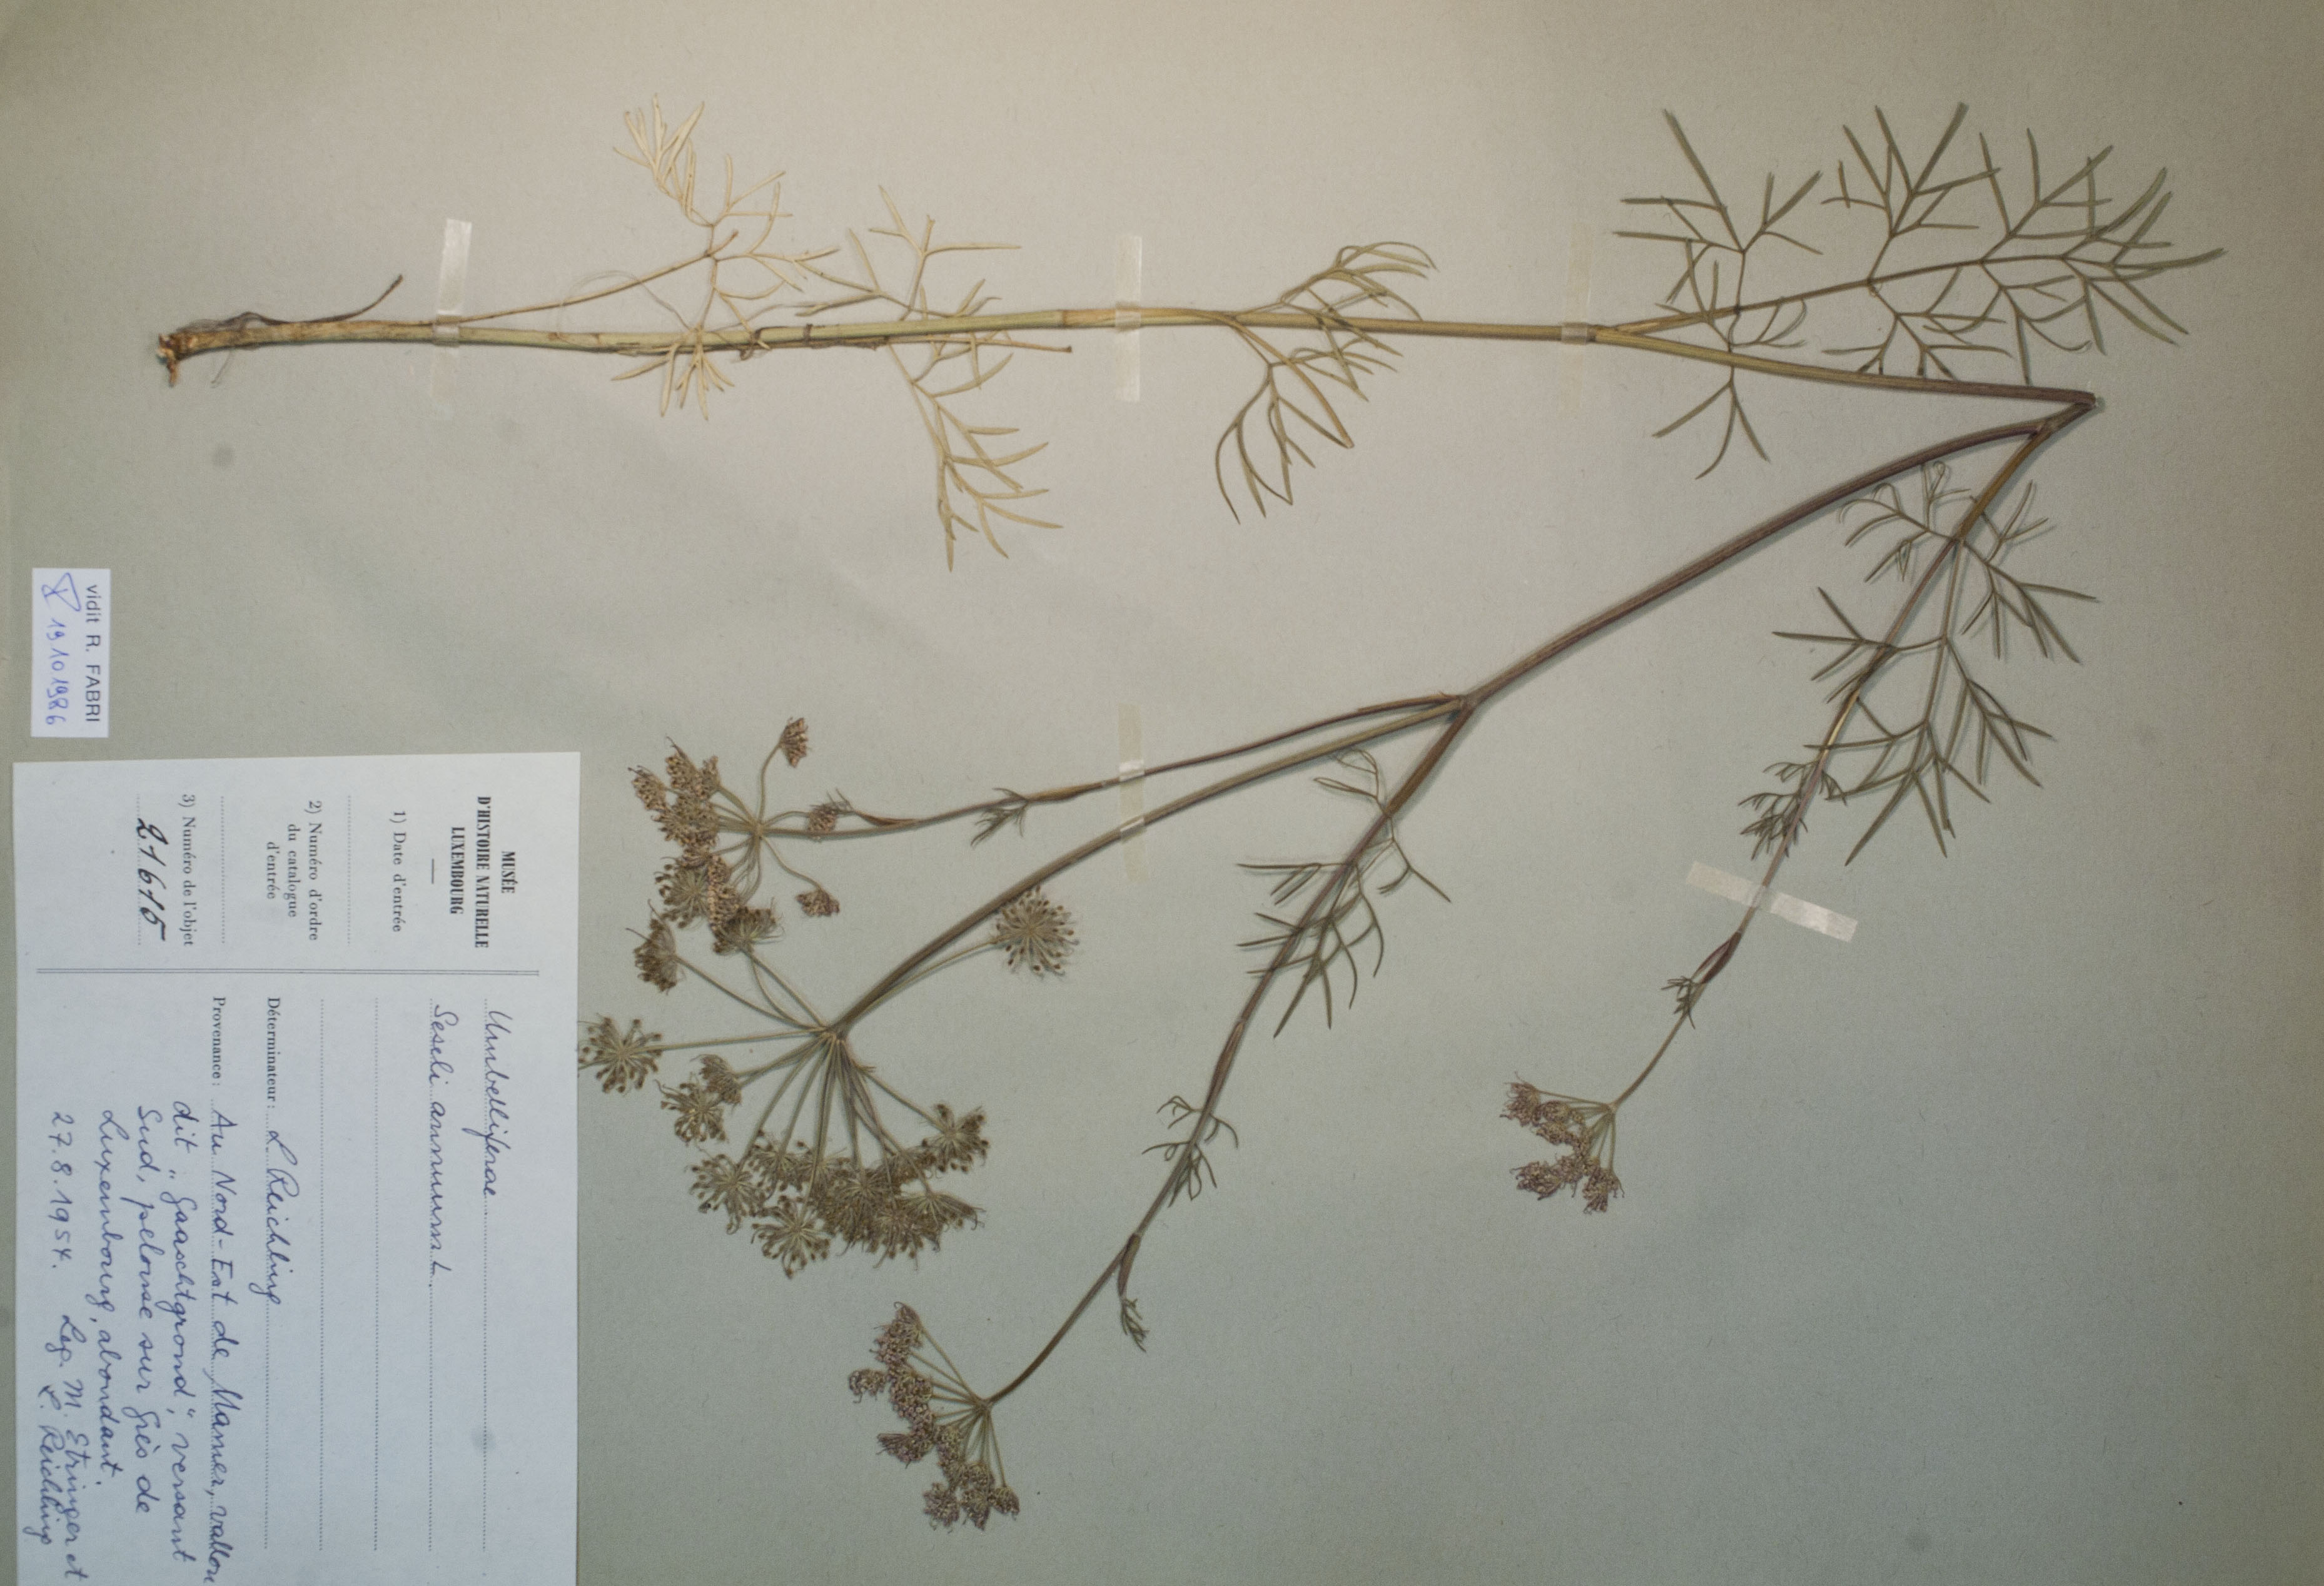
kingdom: Plantae
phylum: Tracheophyta
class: Magnoliopsida
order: Apiales
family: Apiaceae
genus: Silaum
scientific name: Silaum silaus
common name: Pepper-saxifrage
